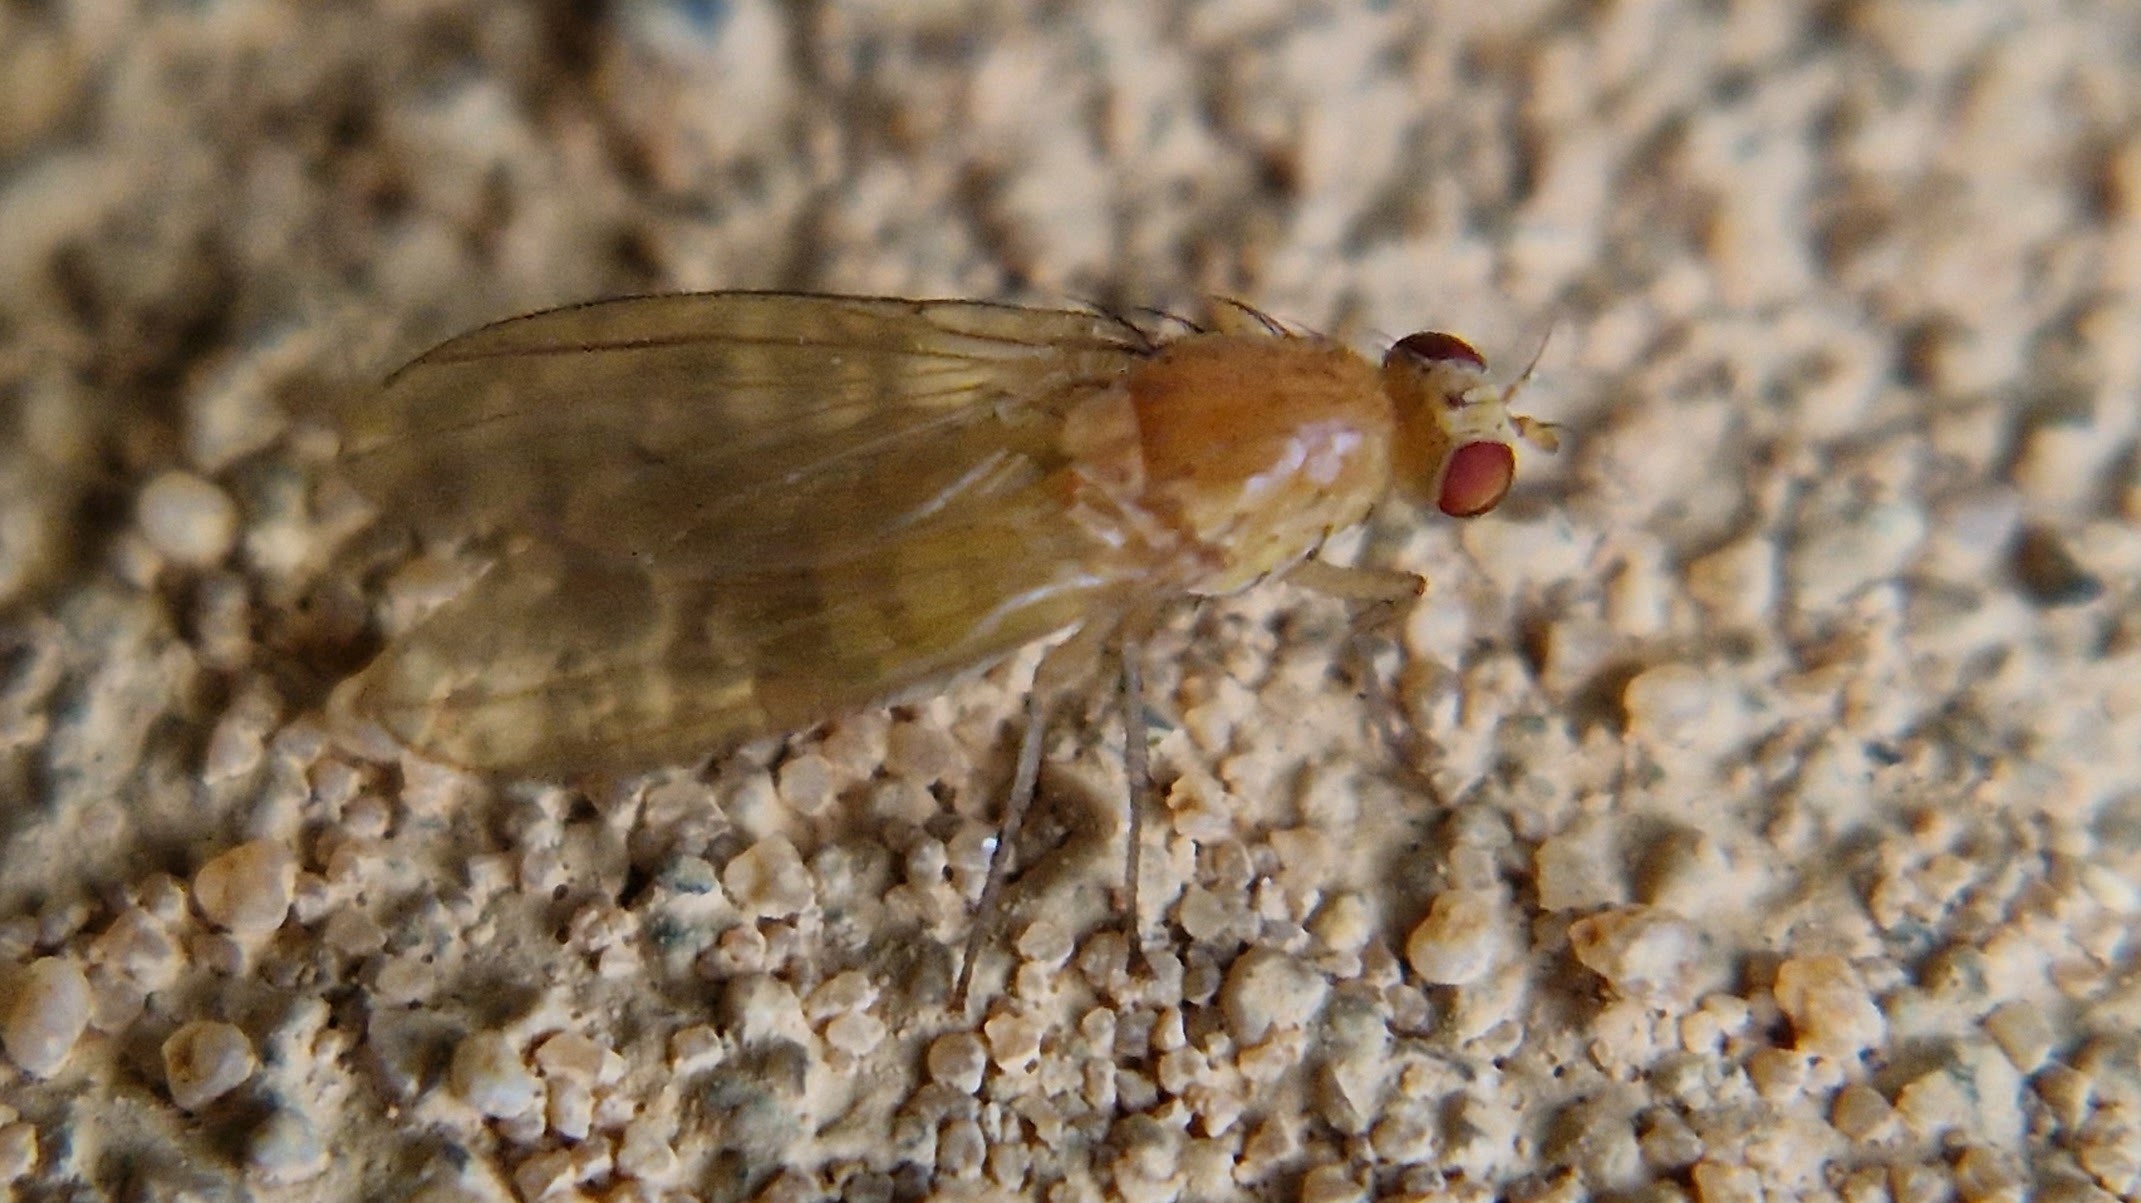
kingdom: Animalia
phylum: Arthropoda
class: Insecta
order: Diptera
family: Lauxaniidae
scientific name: Lauxaniidae
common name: Løvfluer
